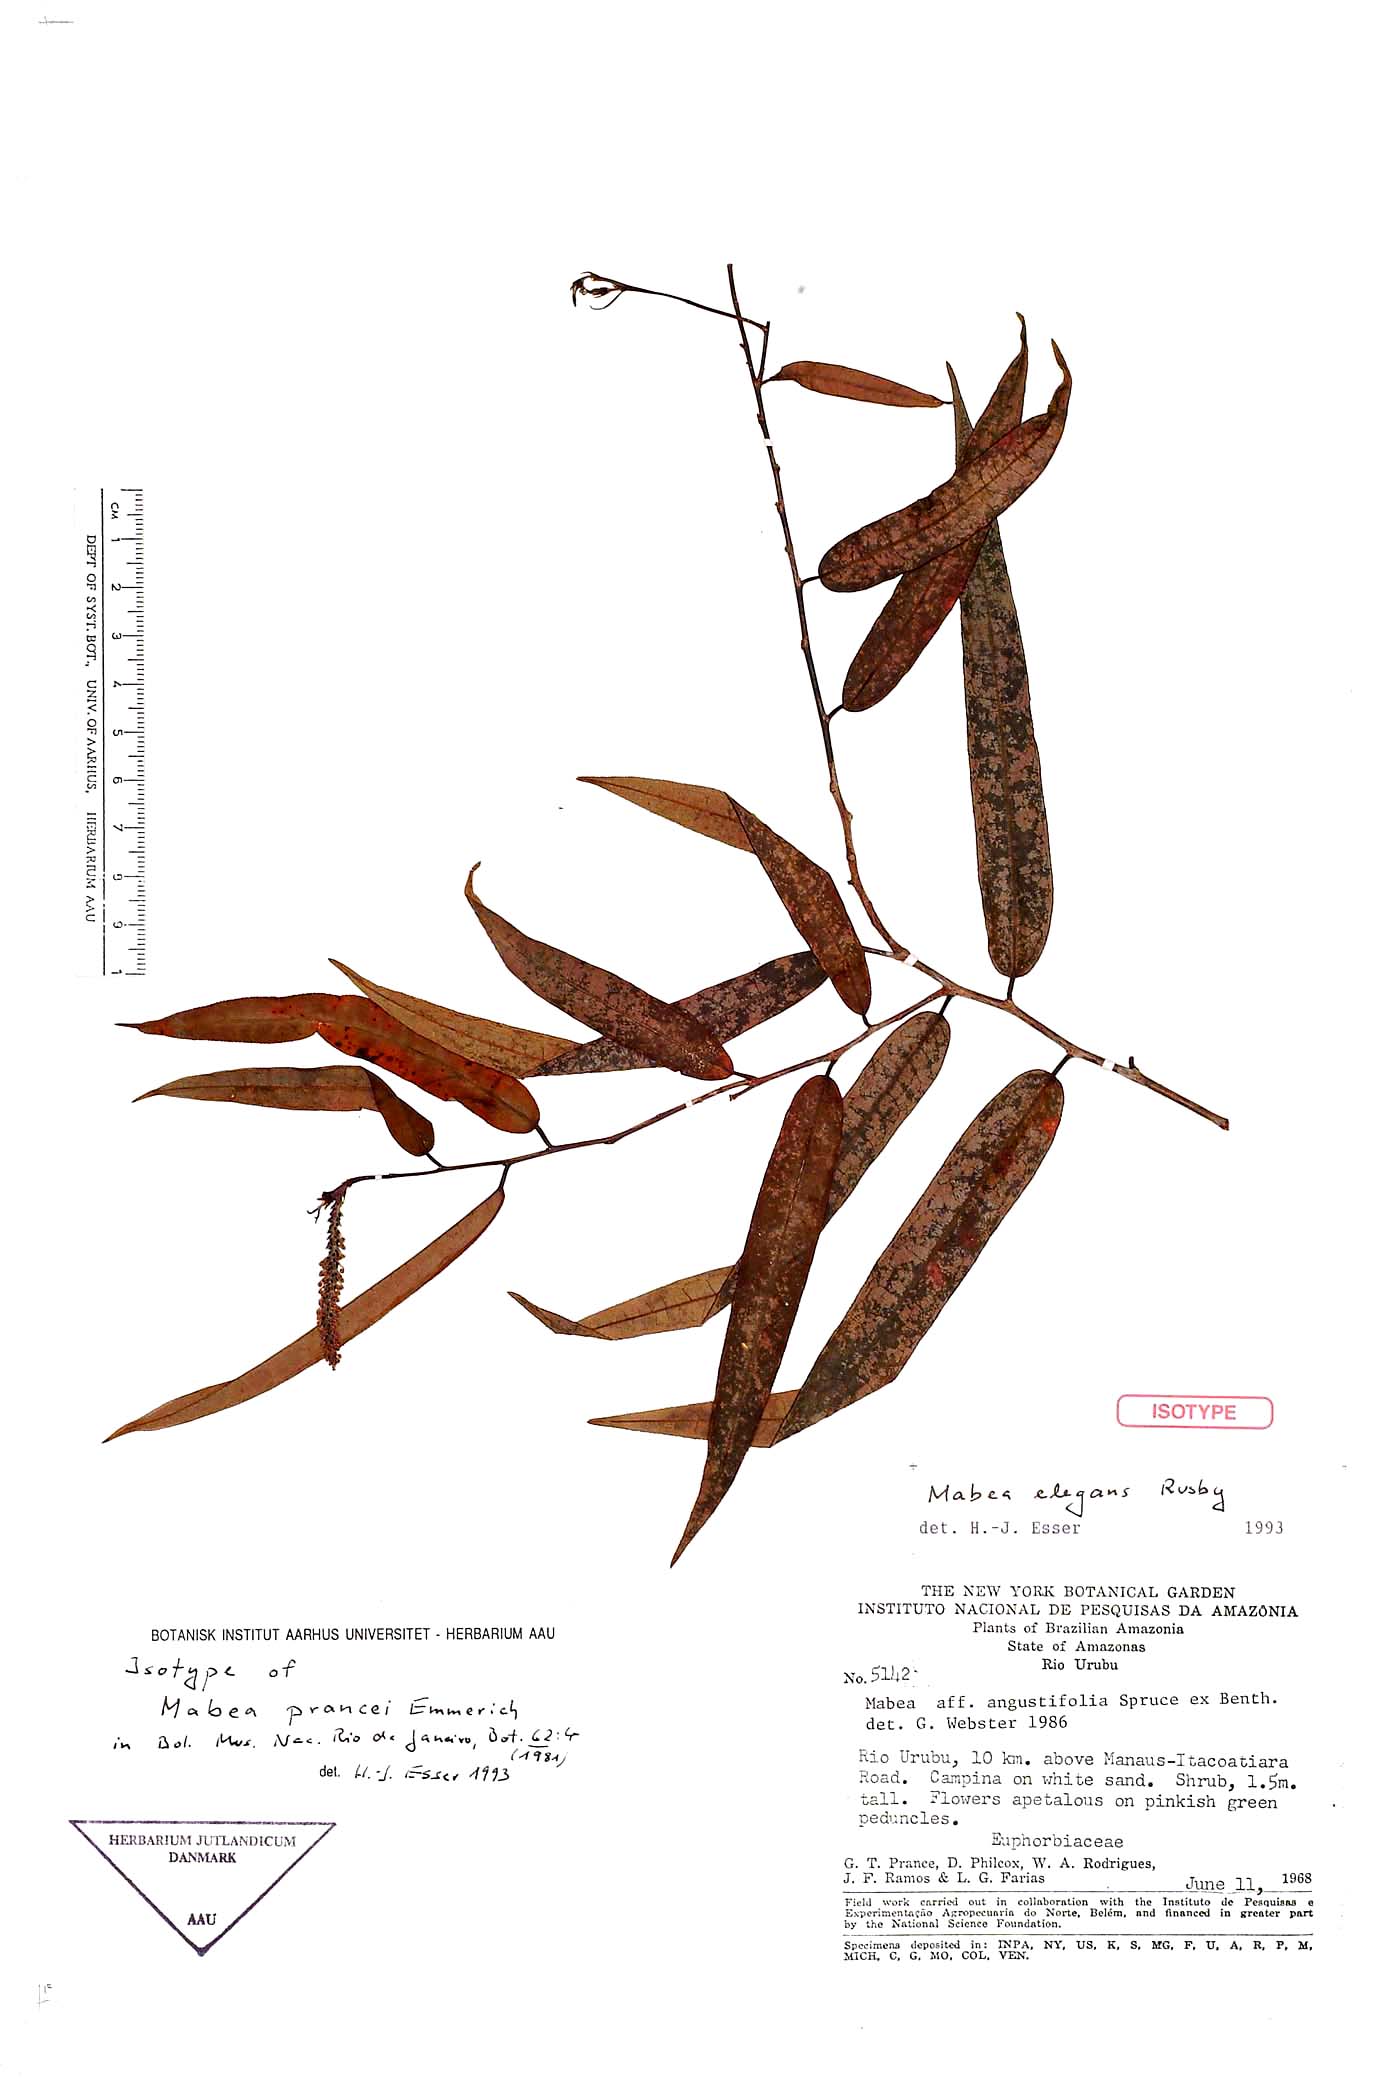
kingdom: Plantae
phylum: Tracheophyta
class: Magnoliopsida
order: Malpighiales
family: Euphorbiaceae
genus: Mabea
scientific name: Mabea elegans
